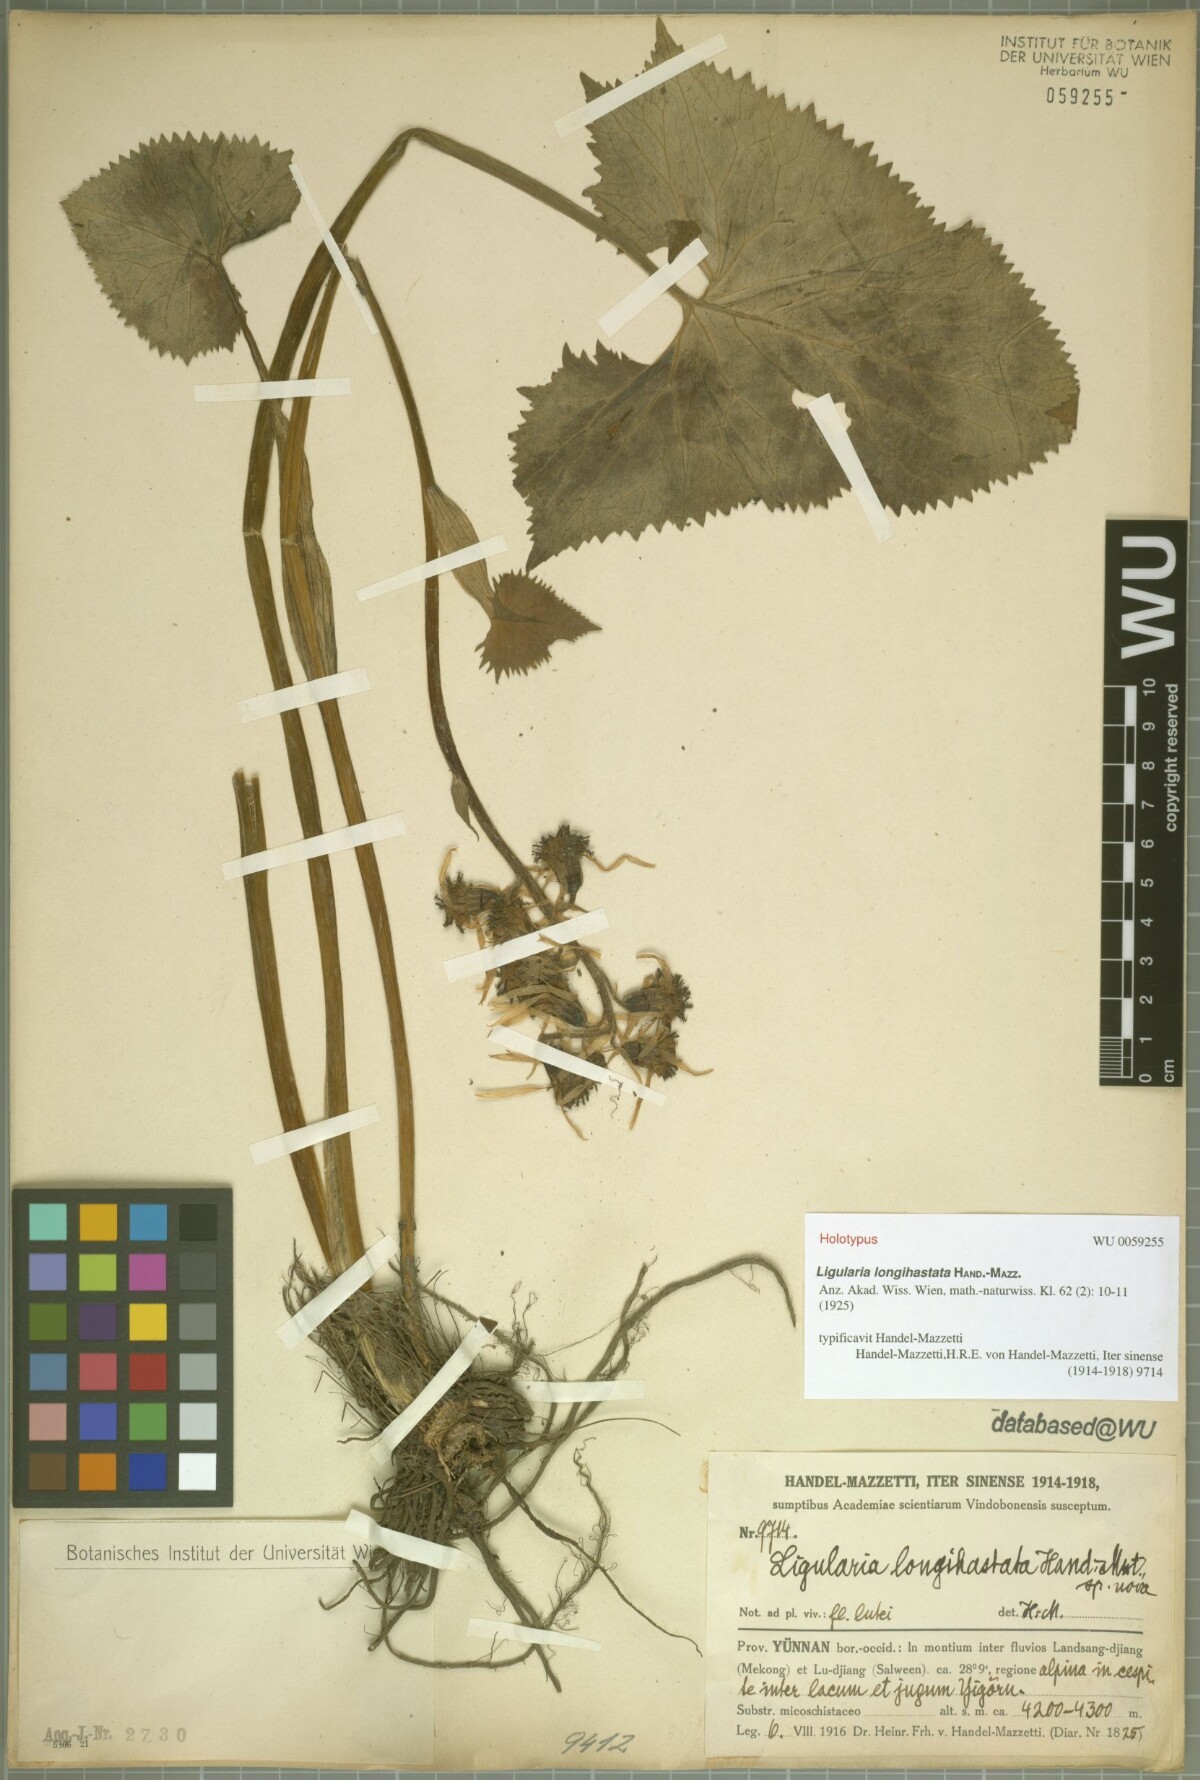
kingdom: Plantae
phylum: Tracheophyta
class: Magnoliopsida
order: Asterales
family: Asteraceae
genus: Ligularia
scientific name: Ligularia longihastata
